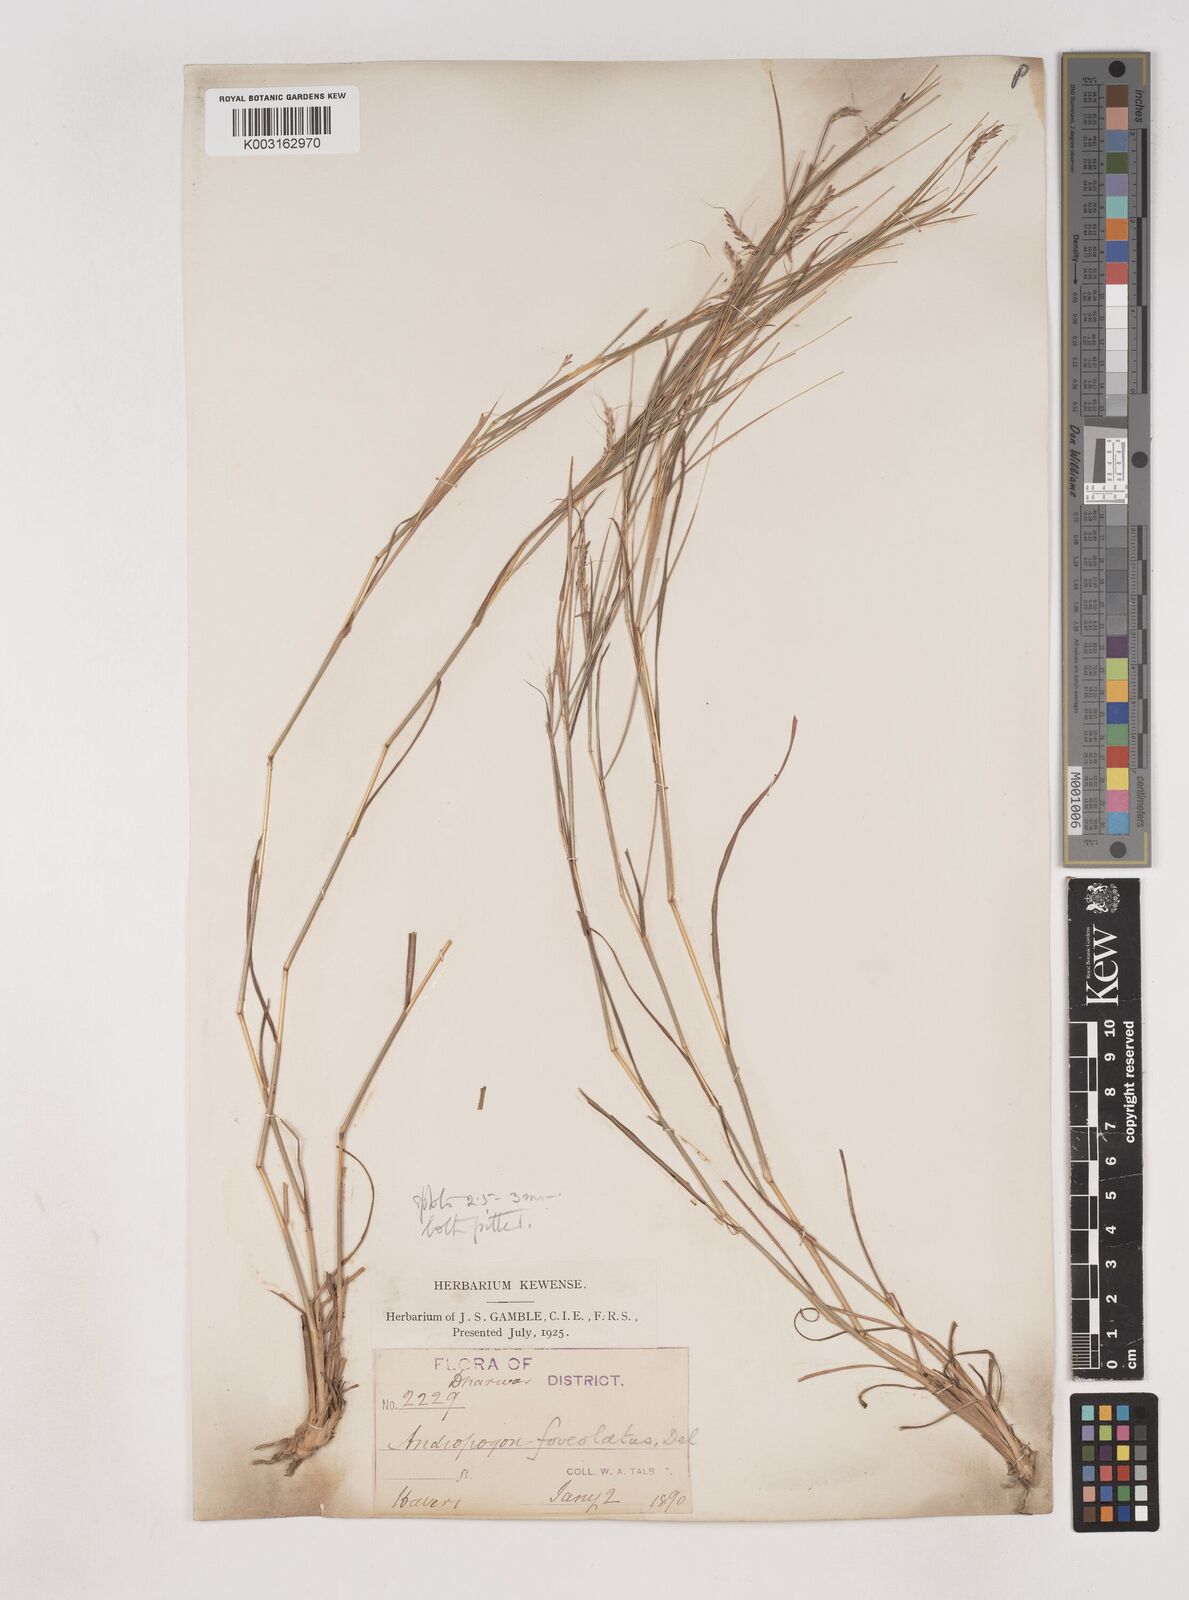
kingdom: Plantae
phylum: Tracheophyta
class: Liliopsida
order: Poales
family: Poaceae
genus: Dichanthium
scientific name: Dichanthium foveolatum
